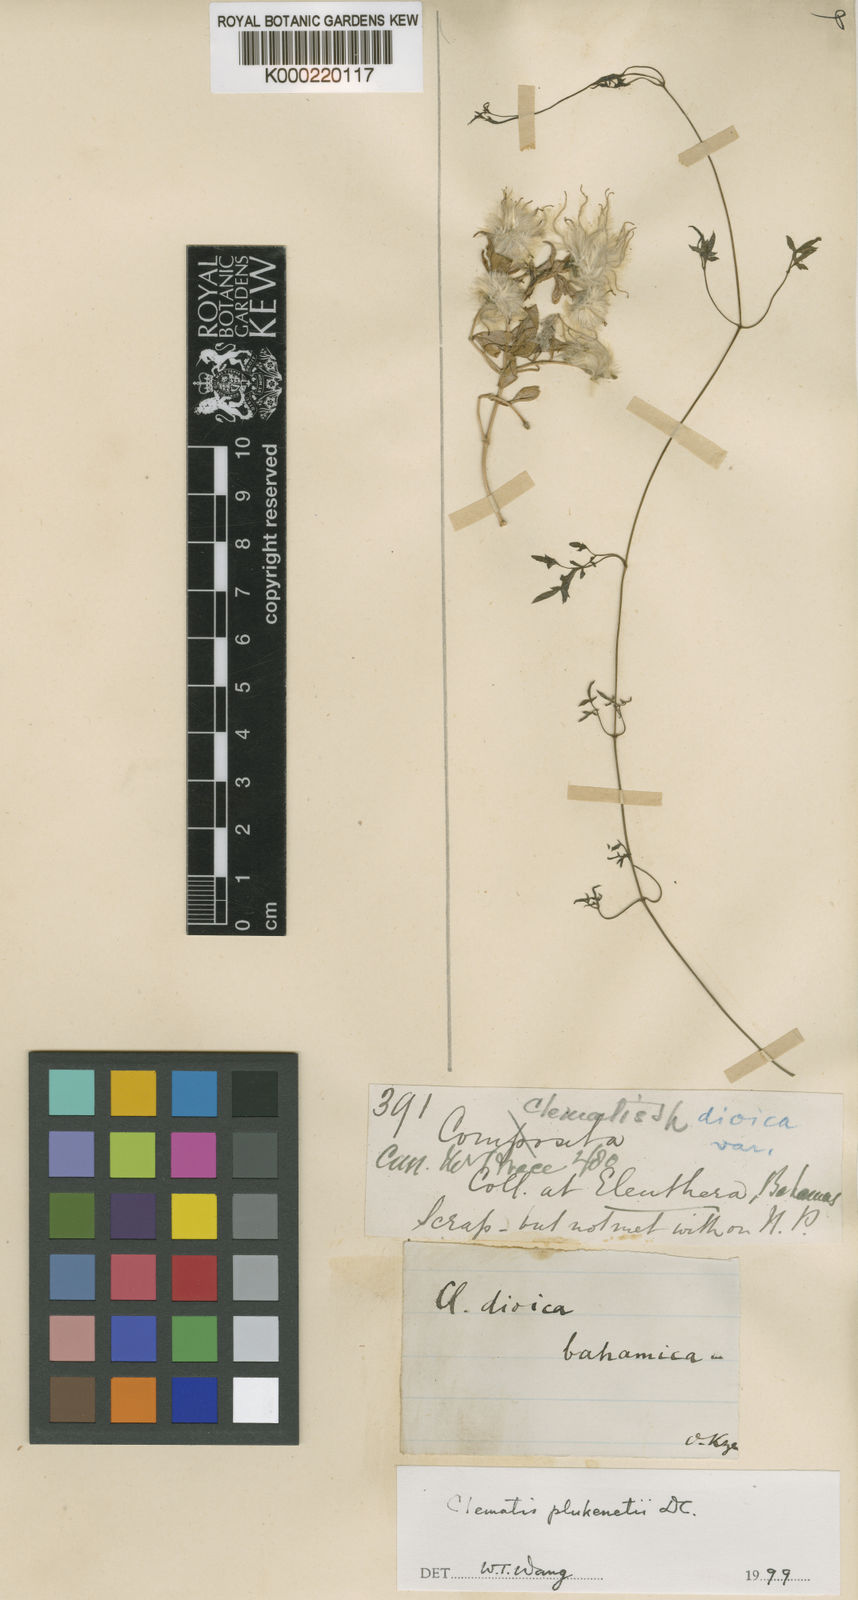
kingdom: Plantae
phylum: Tracheophyta
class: Magnoliopsida
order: Ranunculales
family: Ranunculaceae
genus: Clematis
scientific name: Clematis plukenetii
